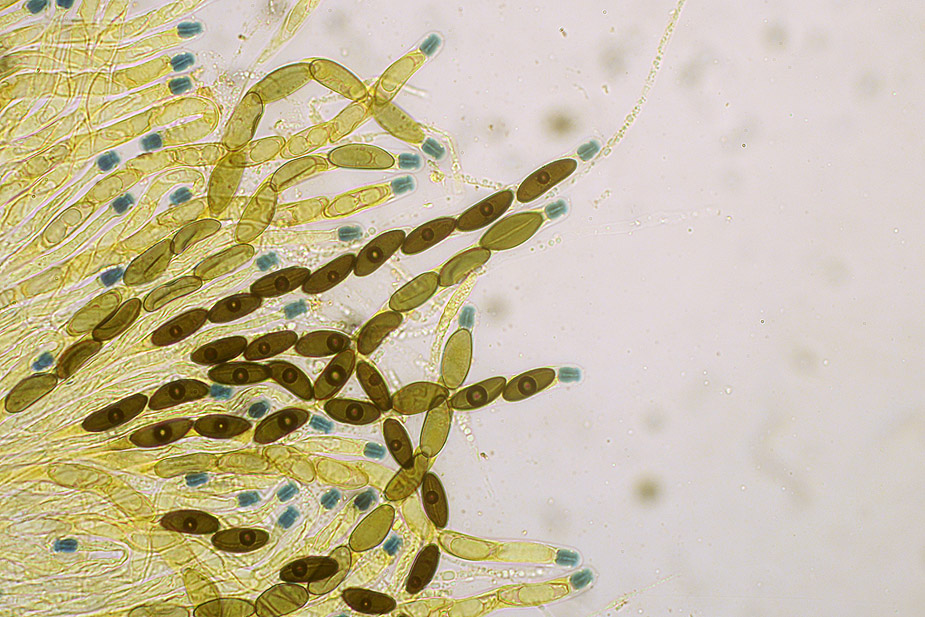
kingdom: Fungi
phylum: Ascomycota
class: Sordariomycetes
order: Xylariales
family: Xylariaceae
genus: Rosellinia
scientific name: Rosellinia aquila
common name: tykskallet kulkaviar
